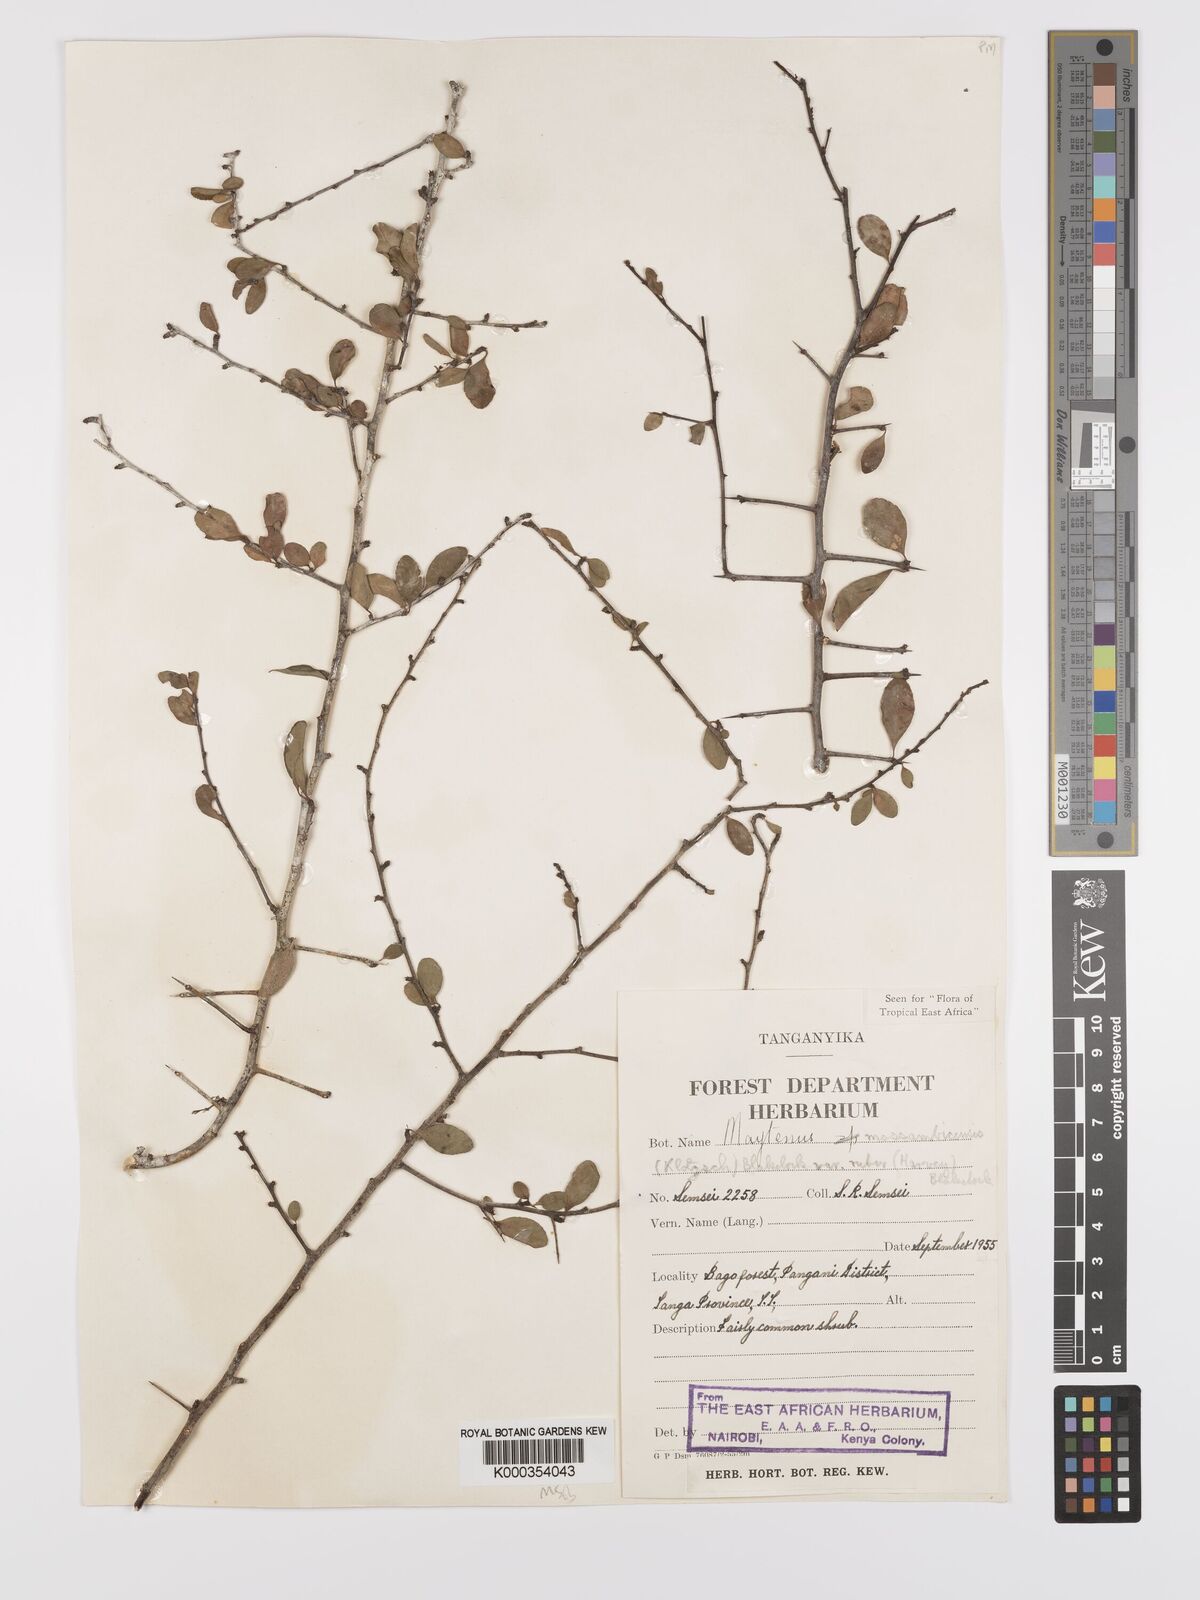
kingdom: Plantae
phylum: Tracheophyta
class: Magnoliopsida
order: Celastrales
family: Celastraceae
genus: Gymnosporia
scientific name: Gymnosporia mossambicensis
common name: Black forest spike-thorn
